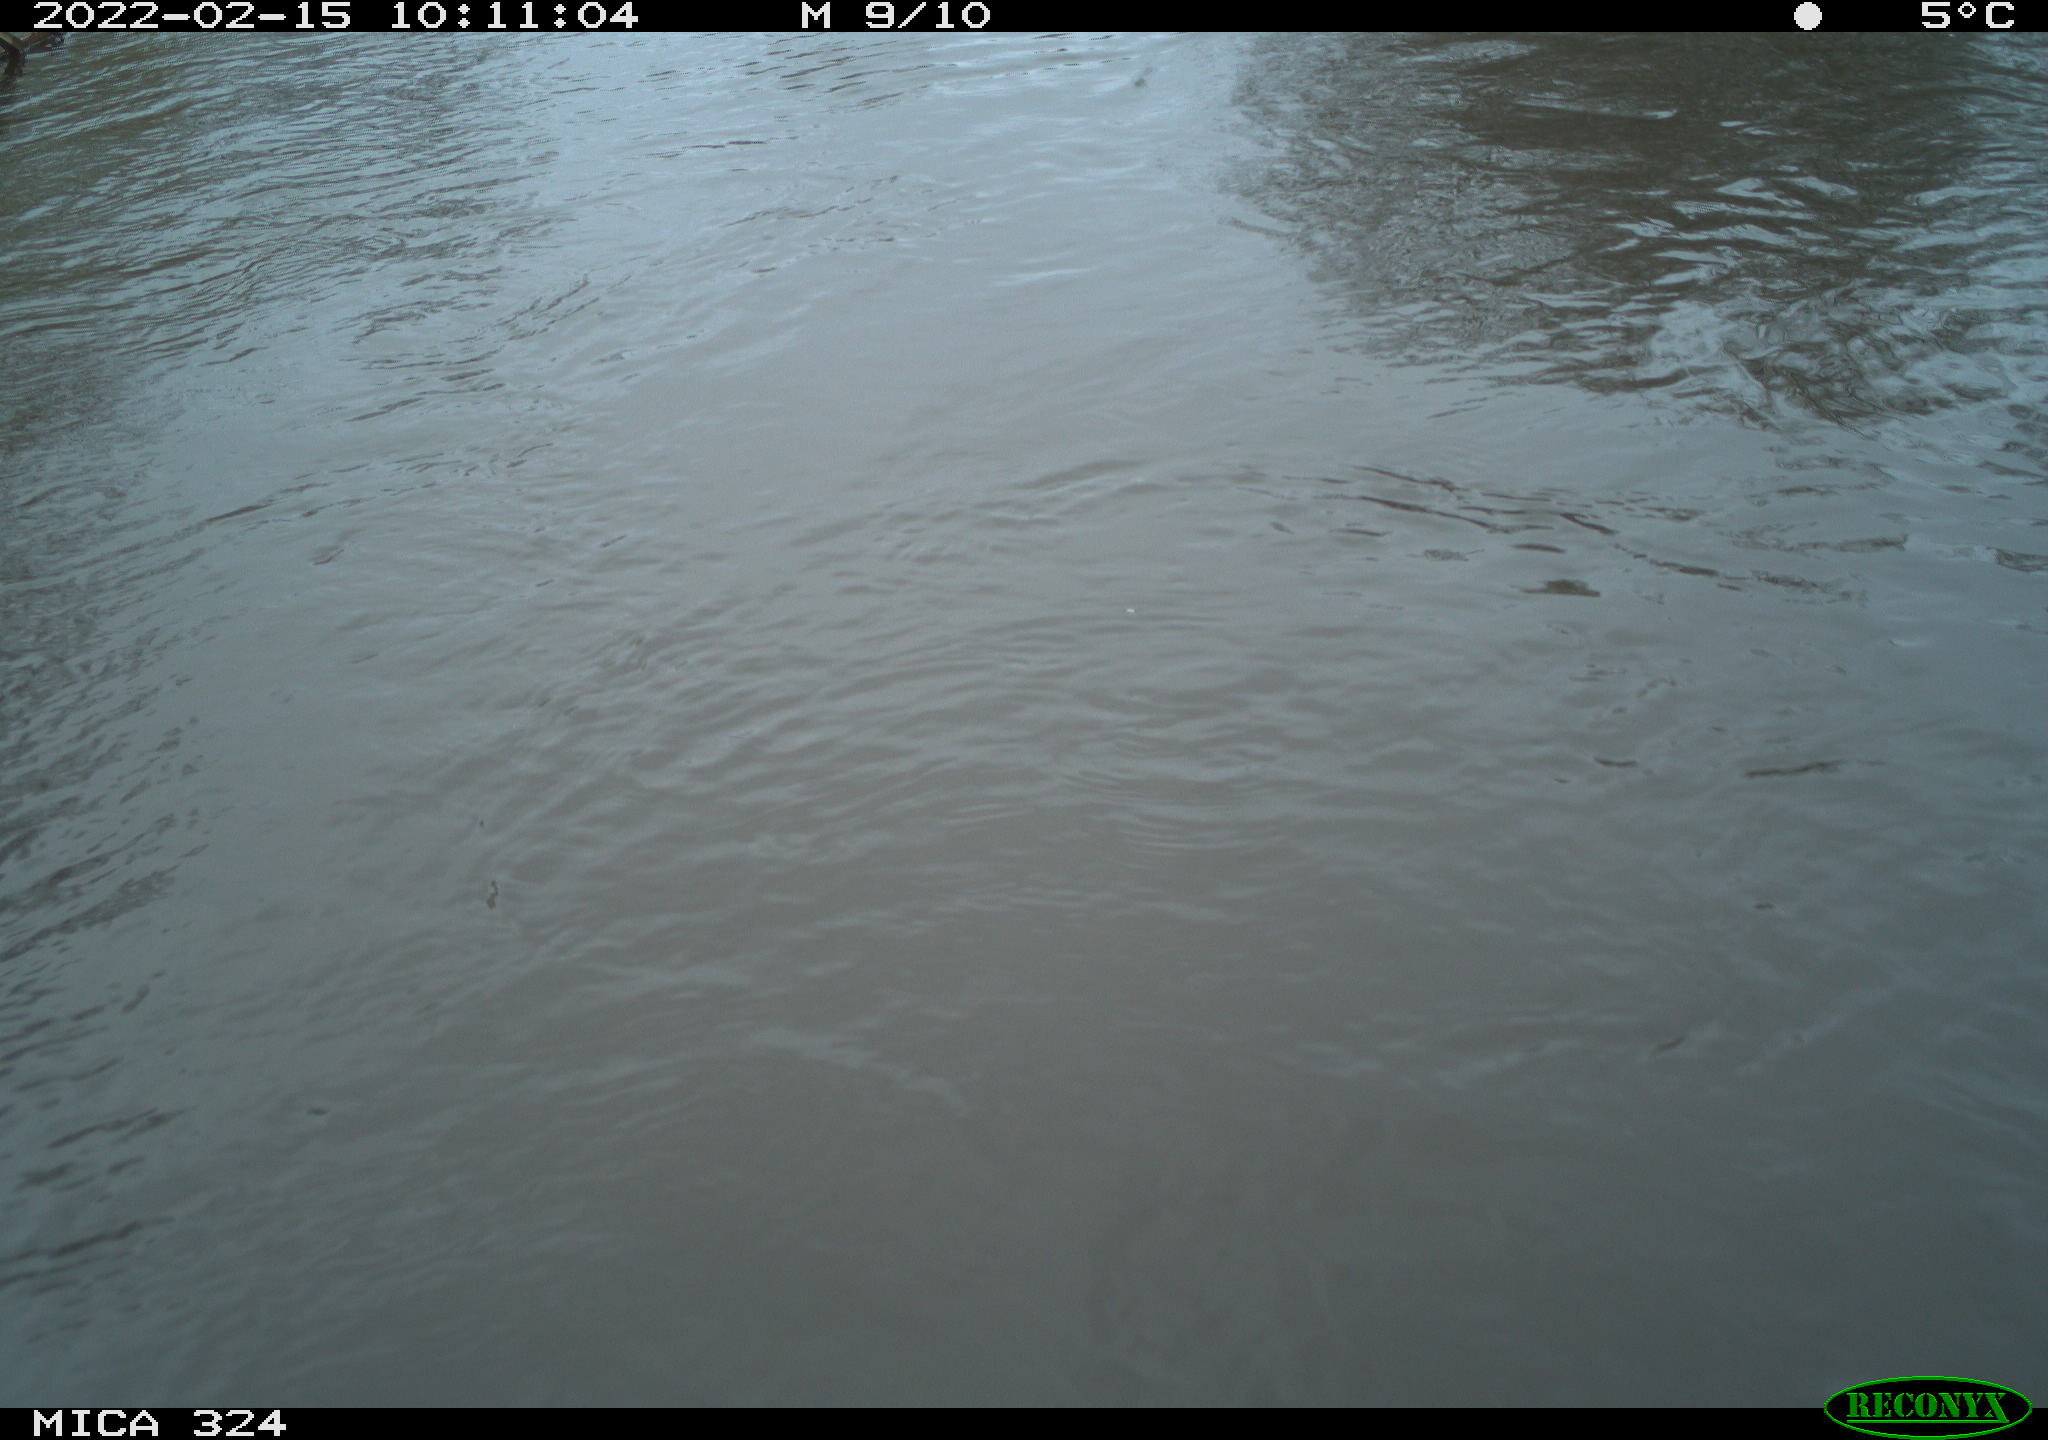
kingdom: Animalia
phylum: Chordata
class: Mammalia
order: Rodentia
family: Cricetidae
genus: Ondatra
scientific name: Ondatra zibethicus
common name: Muskrat
